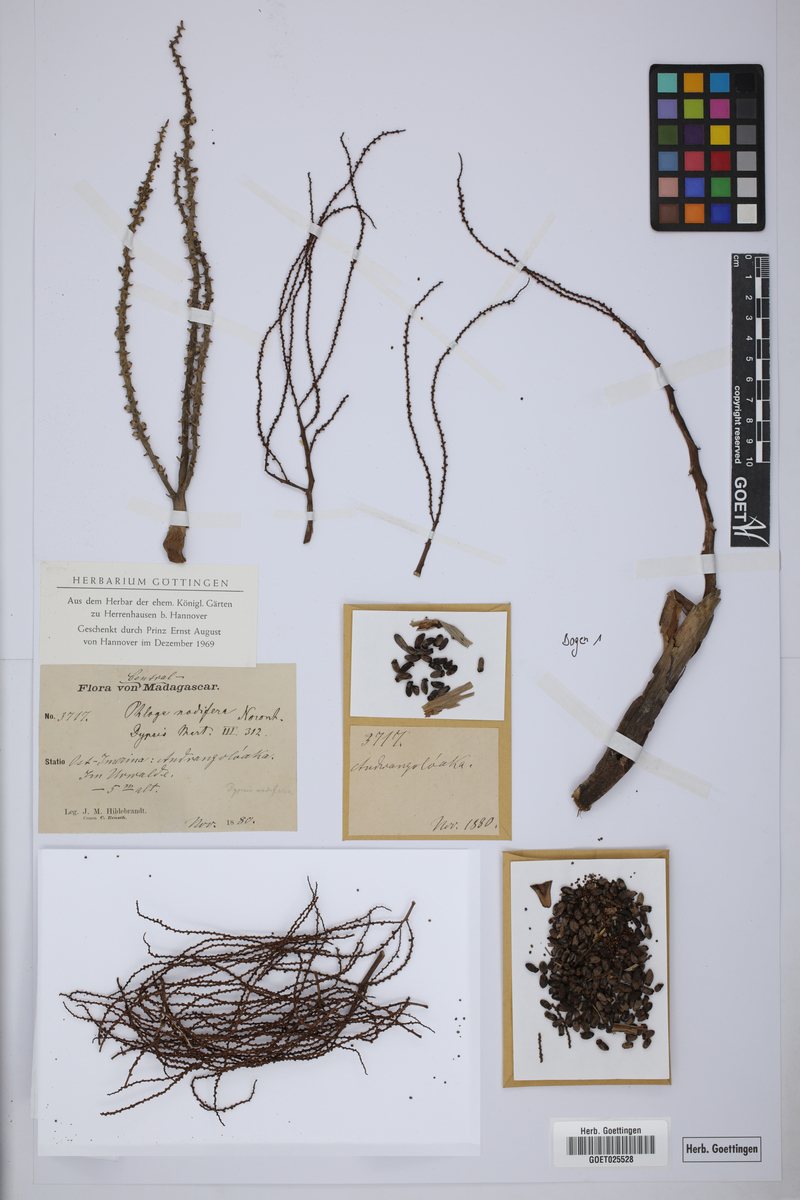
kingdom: Plantae
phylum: Tracheophyta
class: Liliopsida
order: Arecales
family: Arecaceae
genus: Dypsis
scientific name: Dypsis nodifera
